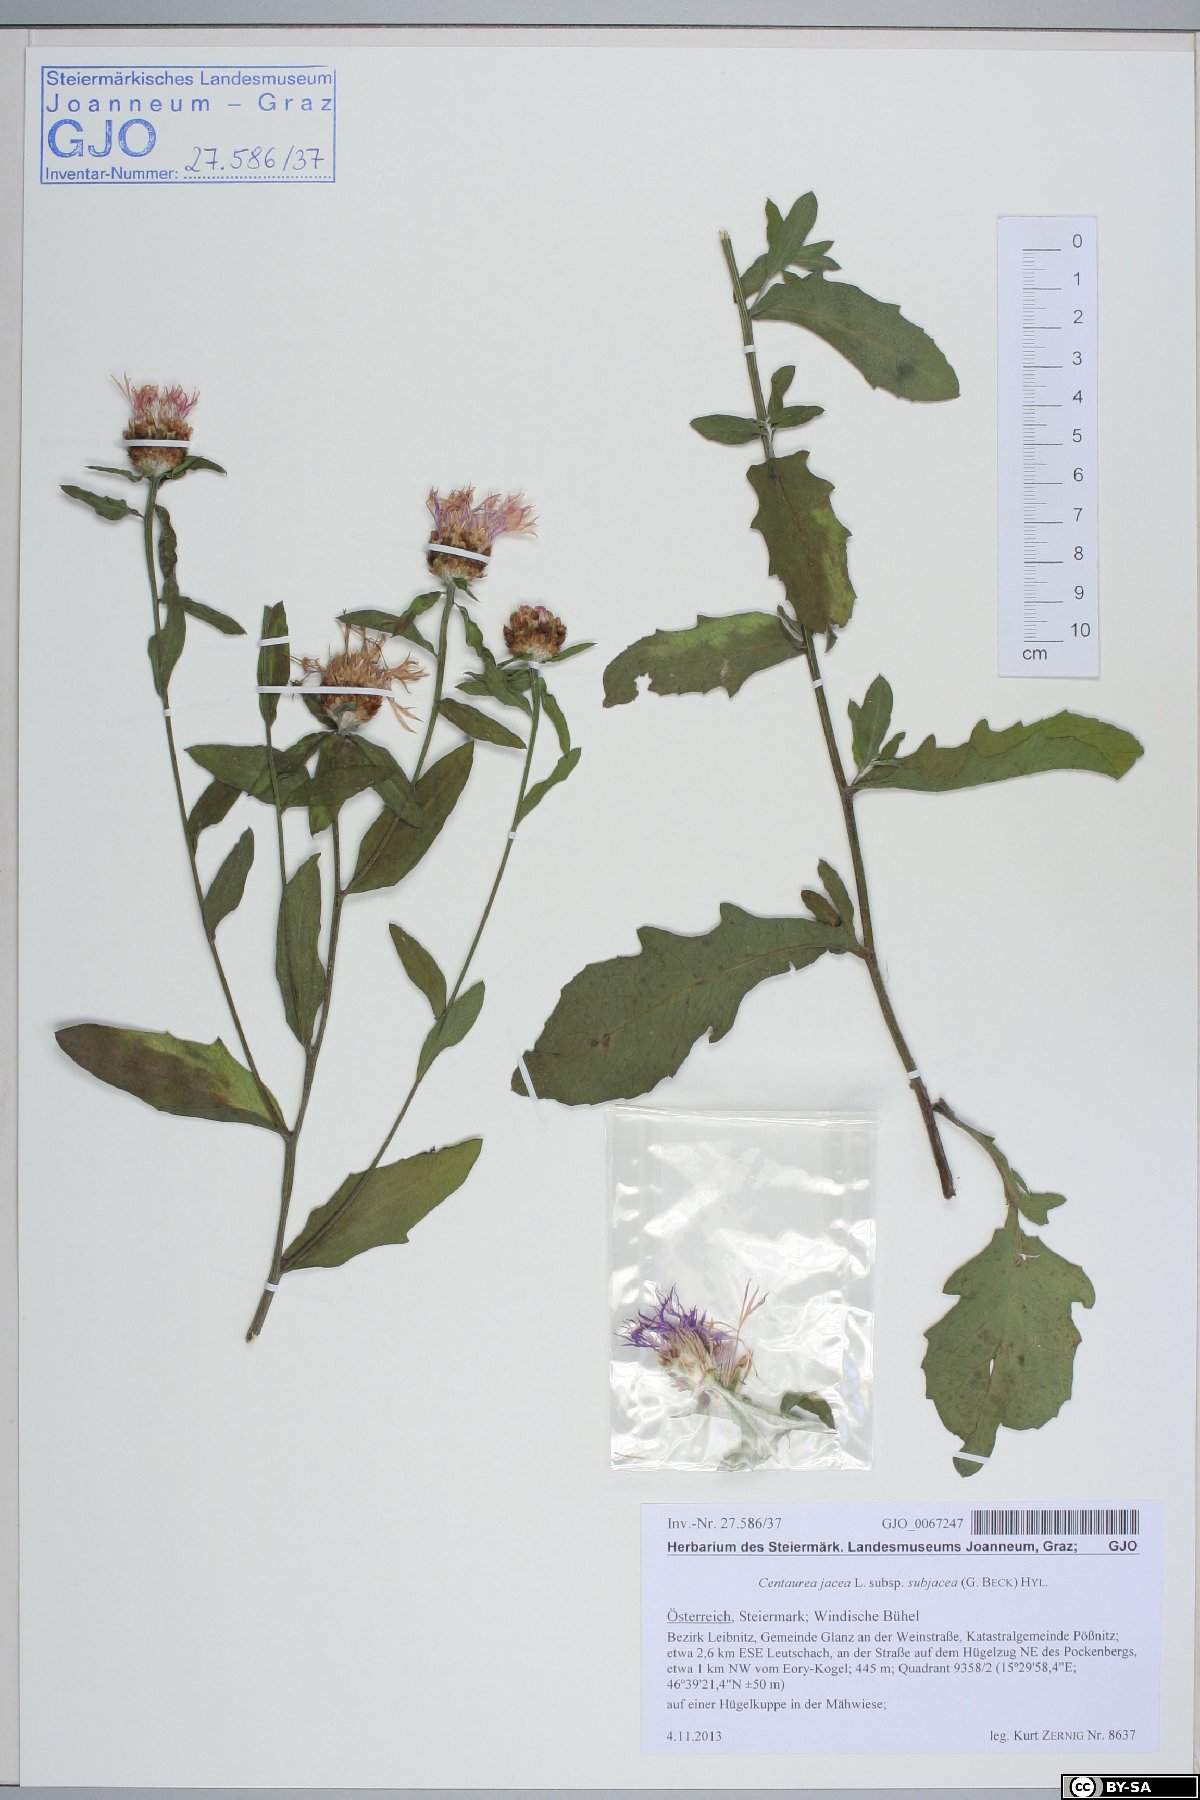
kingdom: Plantae
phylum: Tracheophyta
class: Magnoliopsida
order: Asterales
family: Asteraceae
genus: Centaurea
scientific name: Centaurea preissmannii
